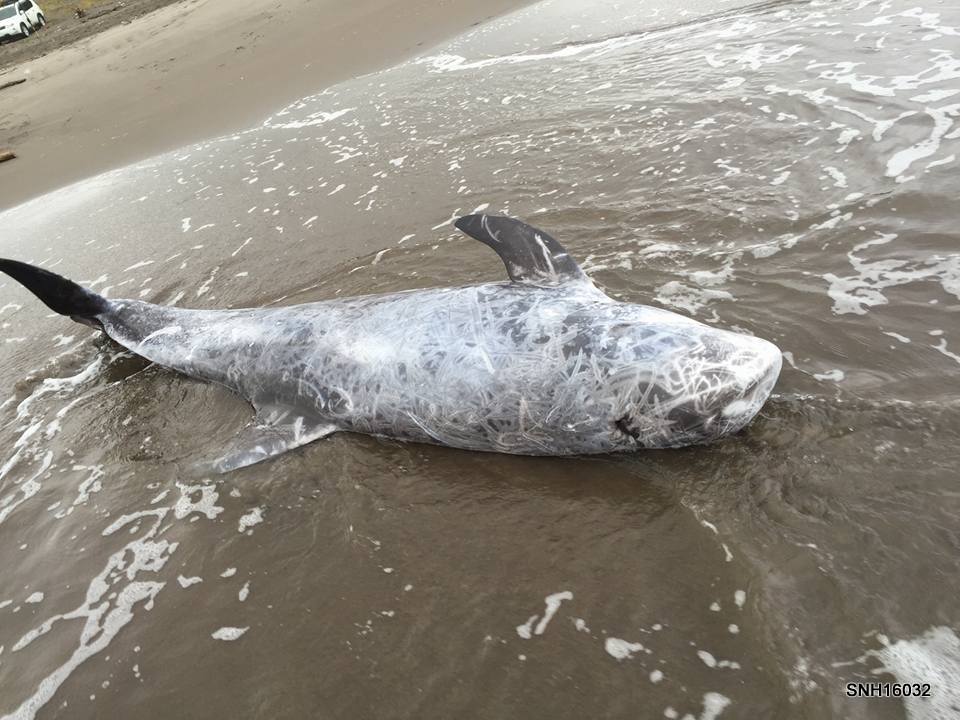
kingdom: Animalia
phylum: Chordata
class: Mammalia
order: Cetacea
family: Delphinidae
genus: Grampus
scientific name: Grampus griseus
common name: Risso's dolphin
